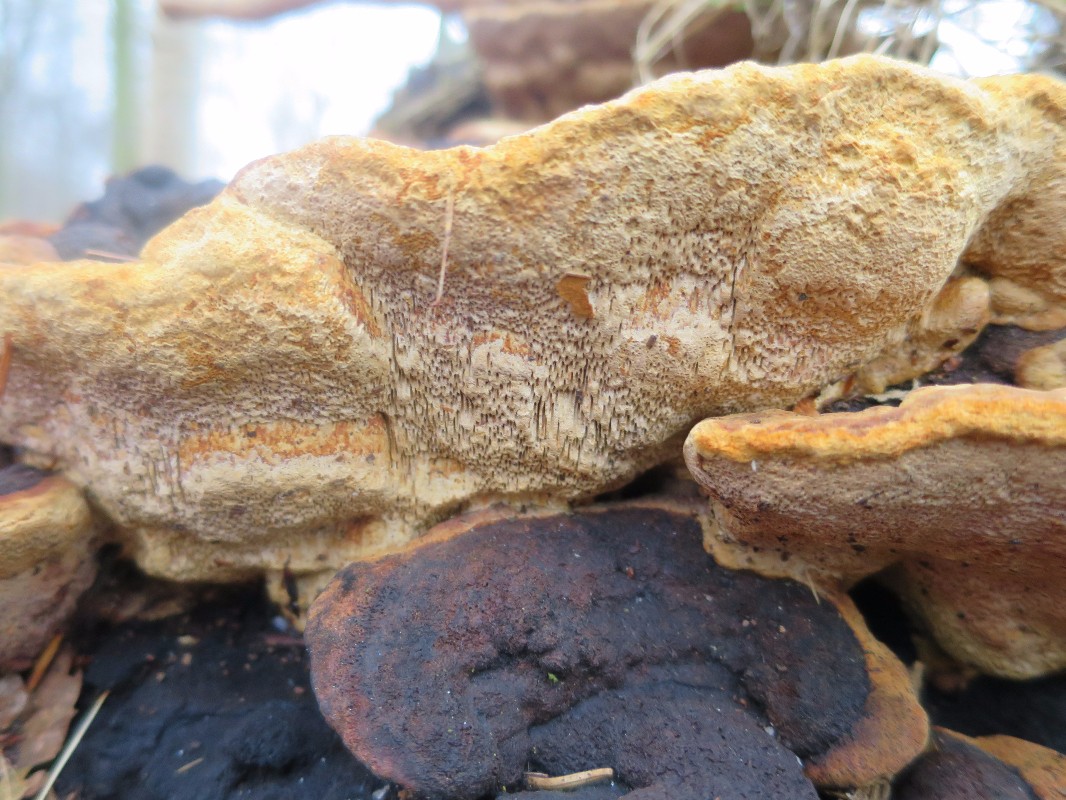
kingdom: Fungi
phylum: Basidiomycota
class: Agaricomycetes
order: Gloeophyllales
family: Gloeophyllaceae
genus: Gloeophyllum
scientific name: Gloeophyllum odoratum
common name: duftende korkhat
